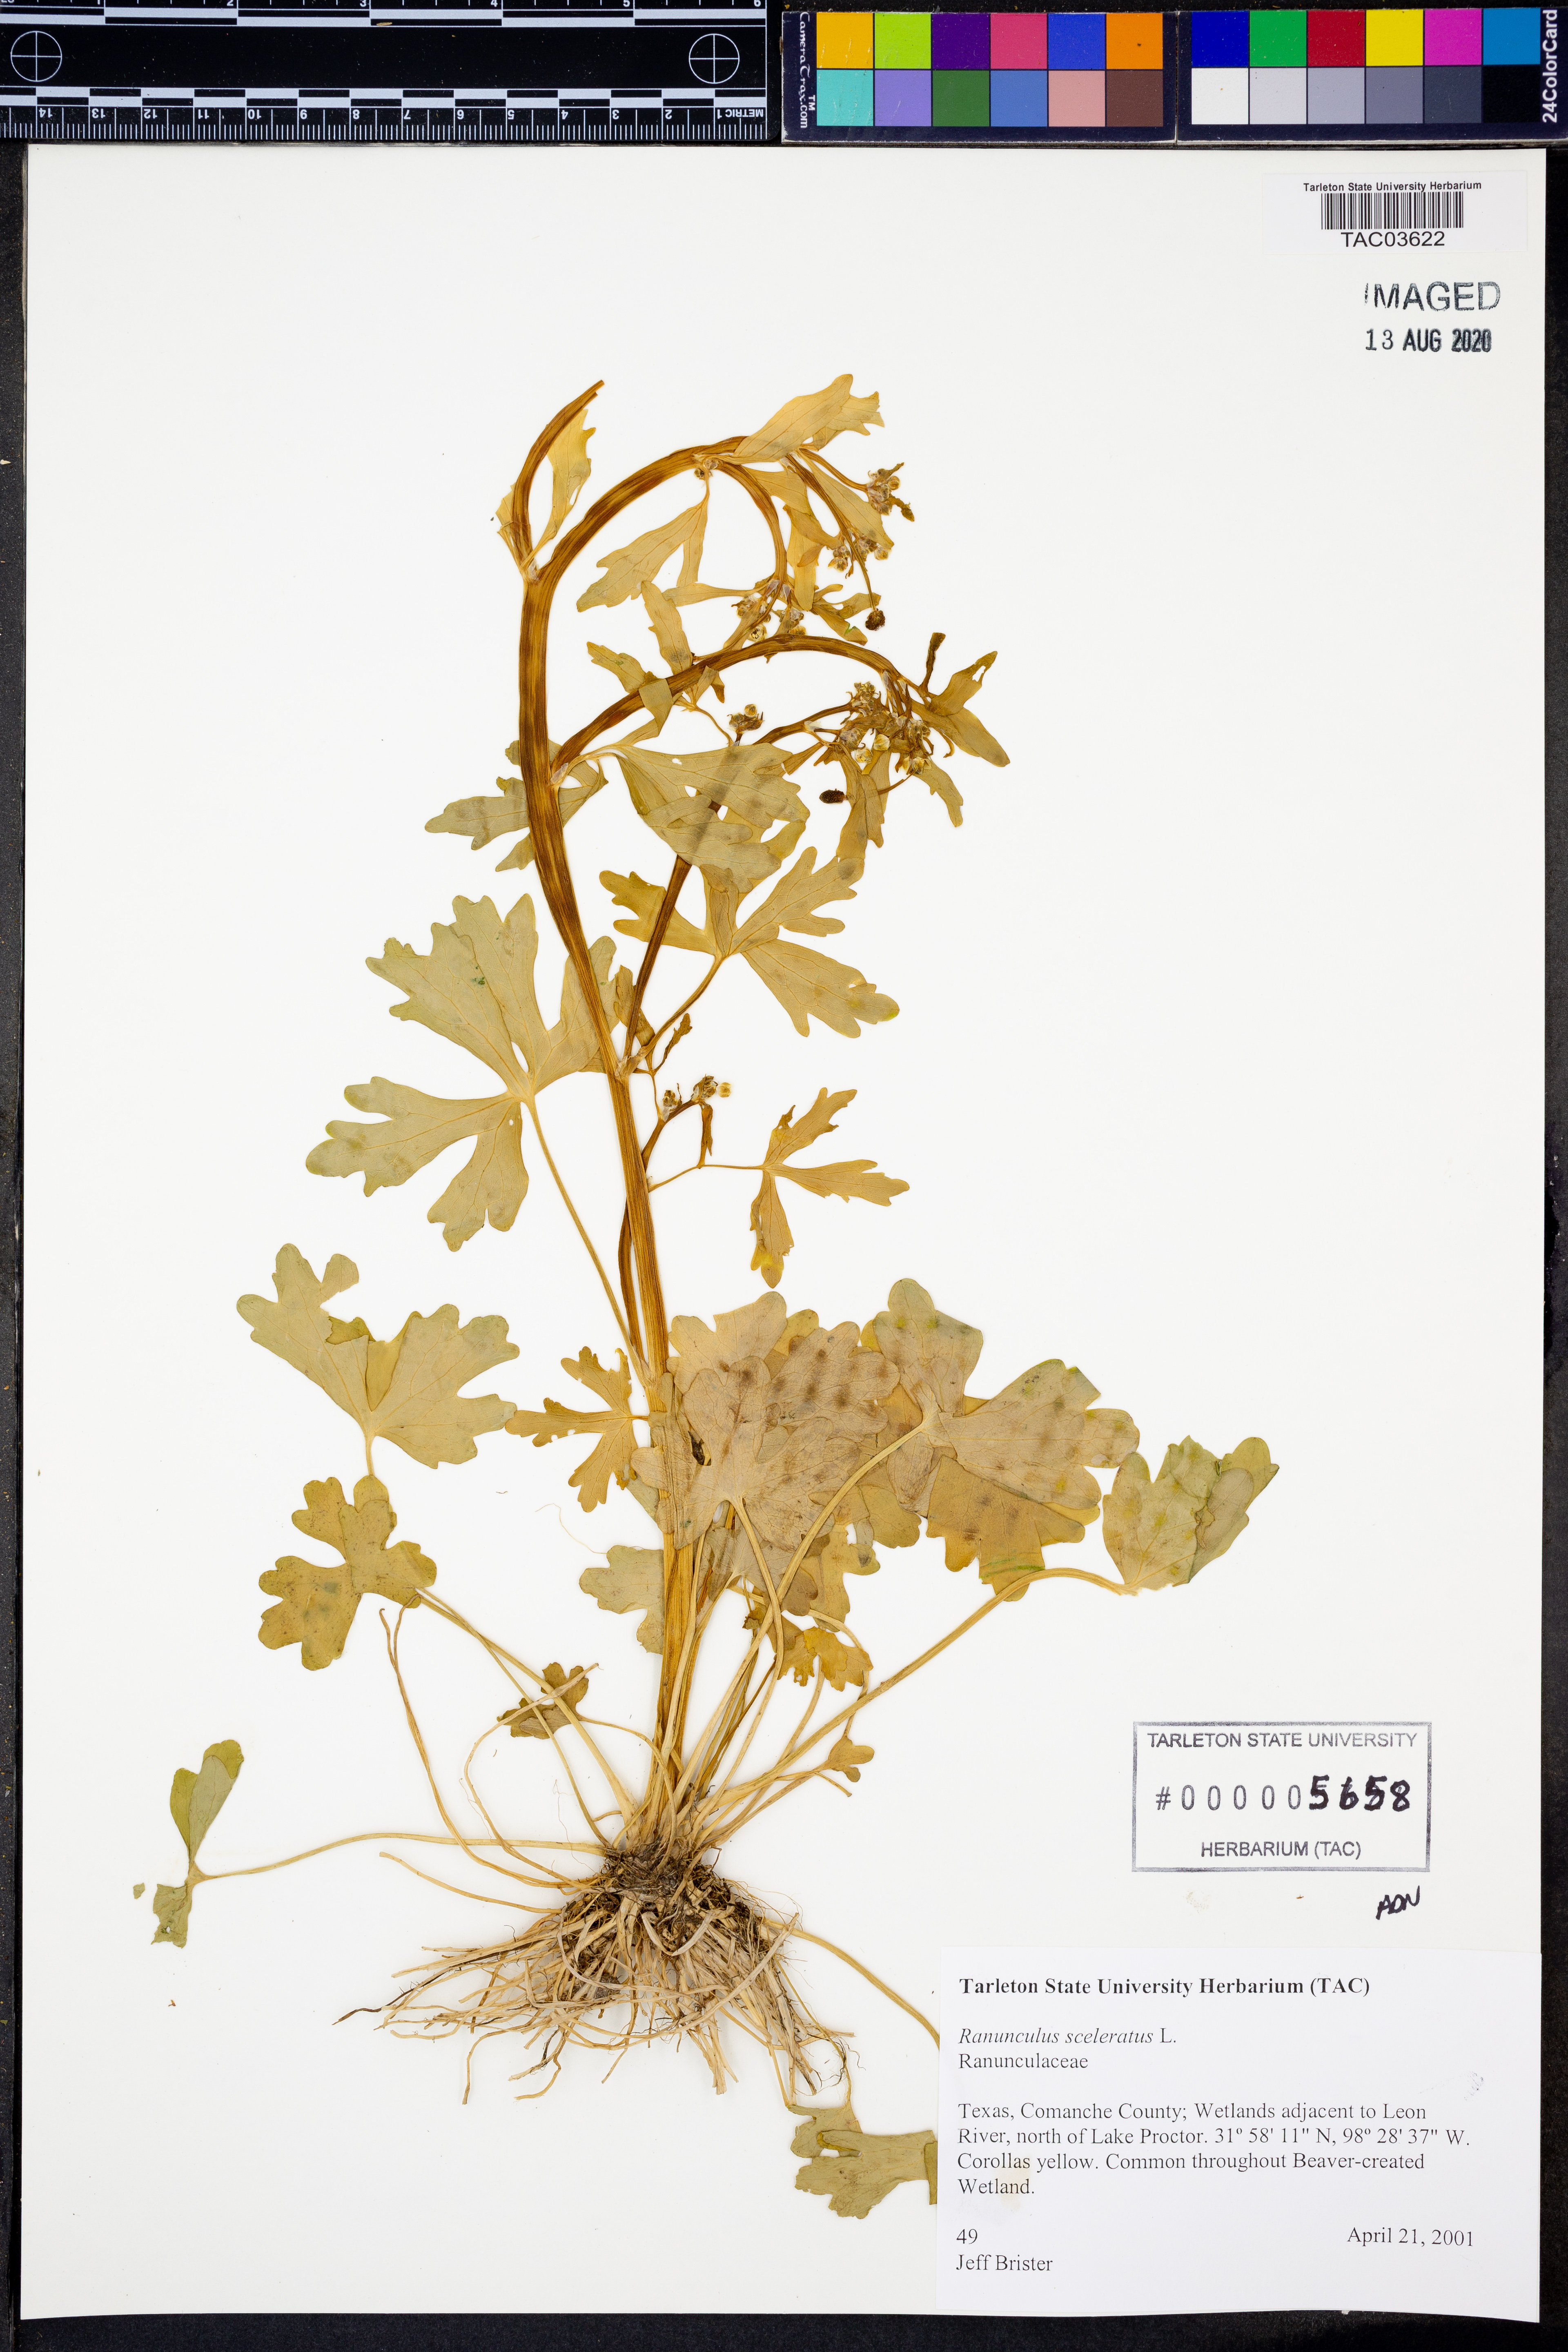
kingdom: Plantae
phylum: Tracheophyta
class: Magnoliopsida
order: Ranunculales
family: Ranunculaceae
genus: Ranunculus
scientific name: Ranunculus sceleratus
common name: Celery-leaved buttercup
